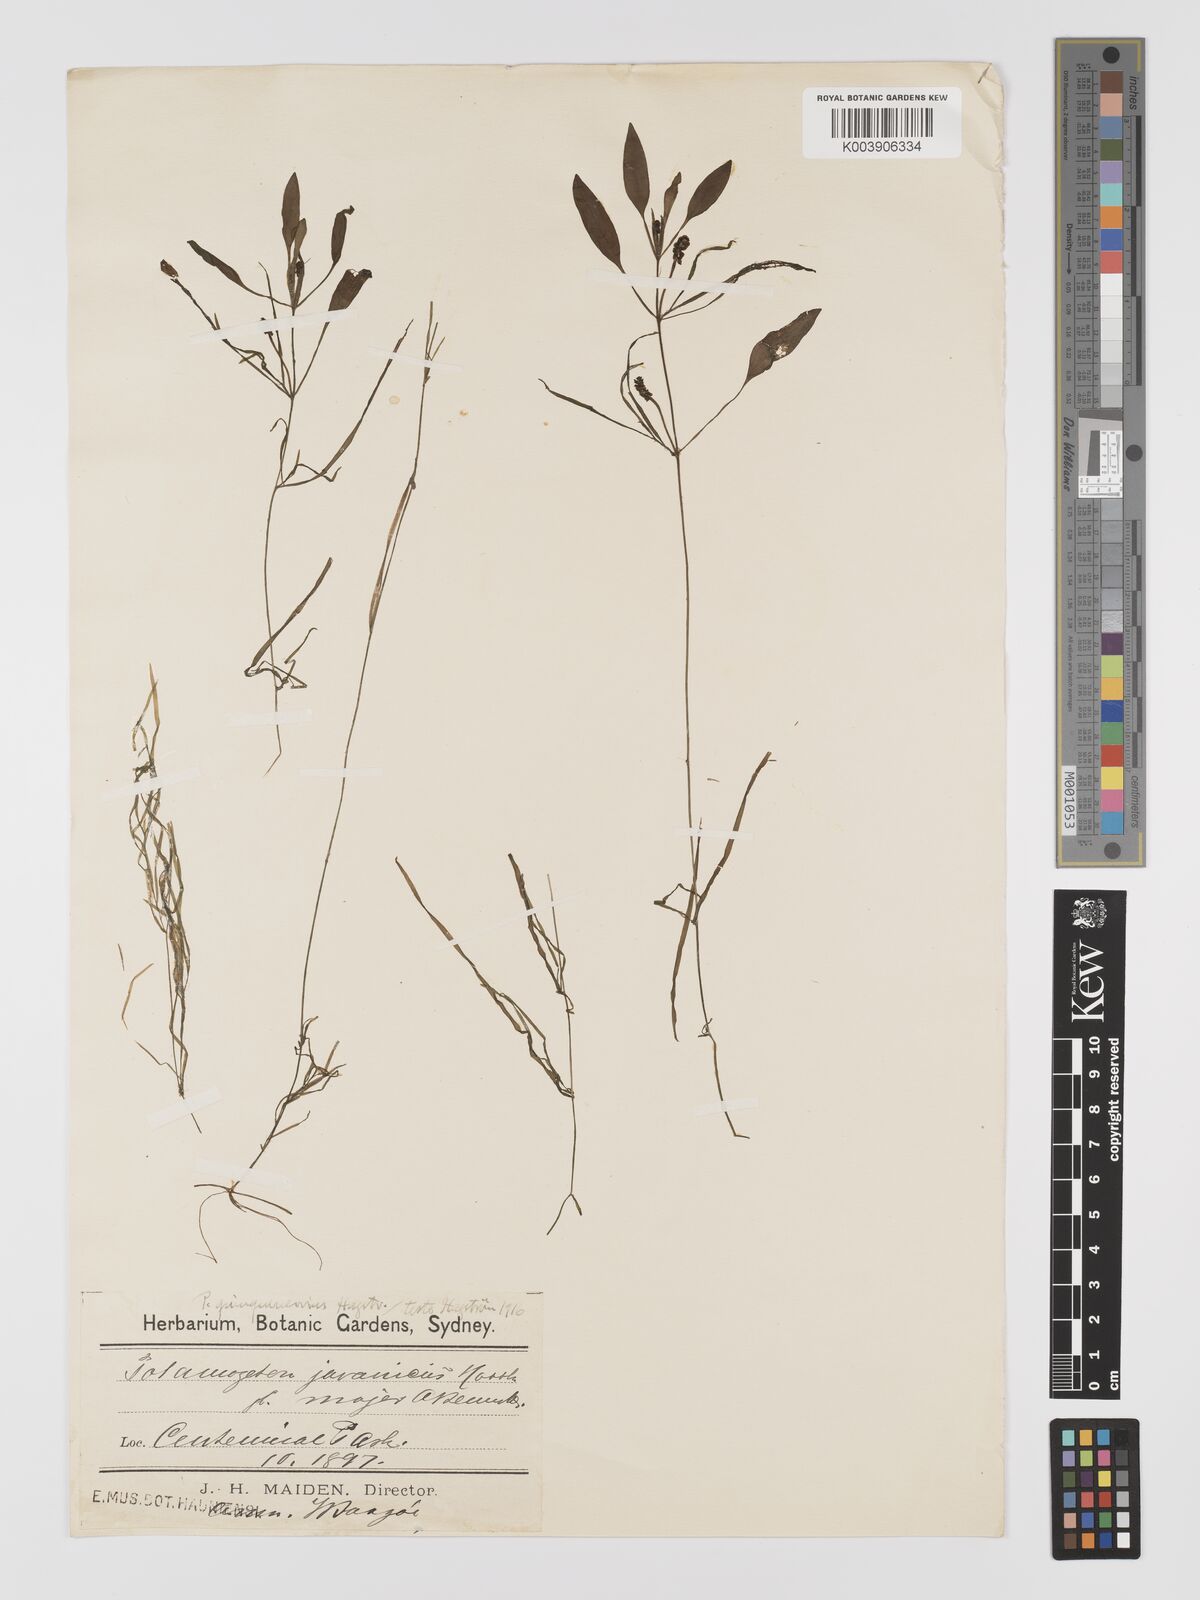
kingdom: Plantae
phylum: Tracheophyta
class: Liliopsida
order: Alismatales
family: Potamogetonaceae
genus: Potamogeton
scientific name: Potamogeton ochreatus
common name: Blunt pondweed
